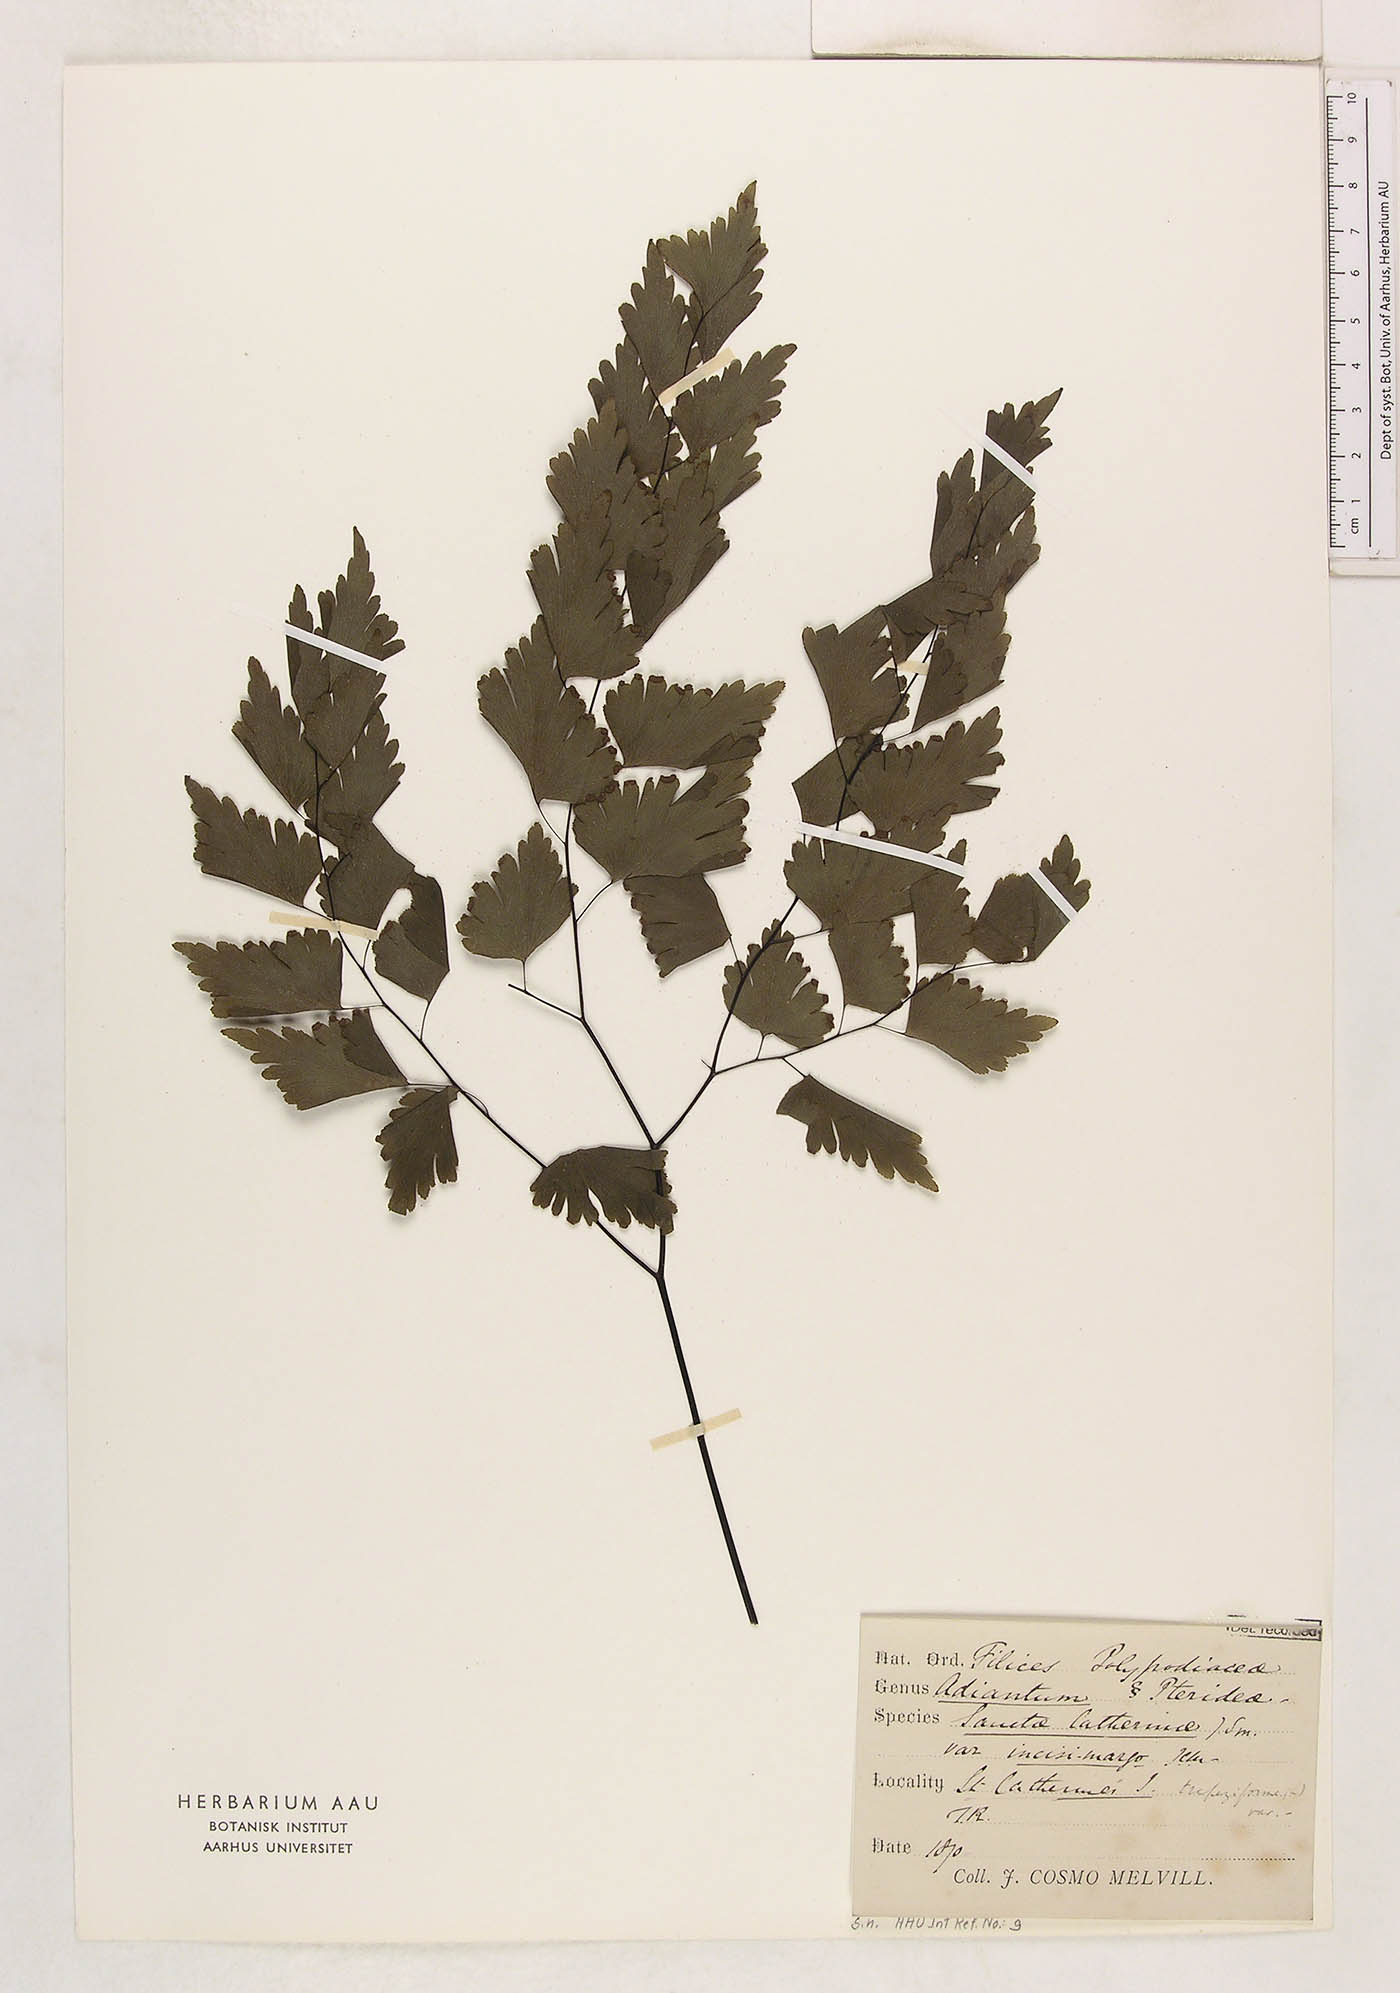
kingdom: Plantae
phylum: Tracheophyta
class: Polypodiopsida
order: Polypodiales
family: Pteridaceae
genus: Adiantum
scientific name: Adiantum pentadactylon
